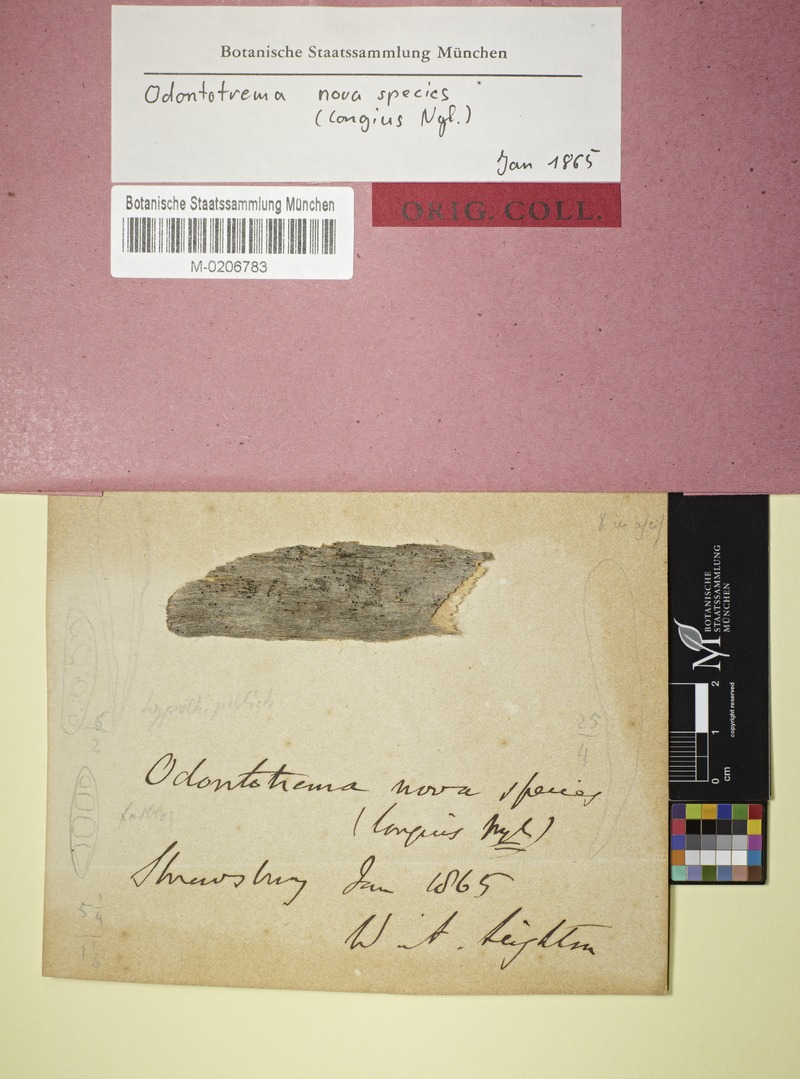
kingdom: Fungi
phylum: Ascomycota
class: Leotiomycetes
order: Helotiales
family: Helotiaceae
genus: Durella
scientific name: Durella atrocyanea
